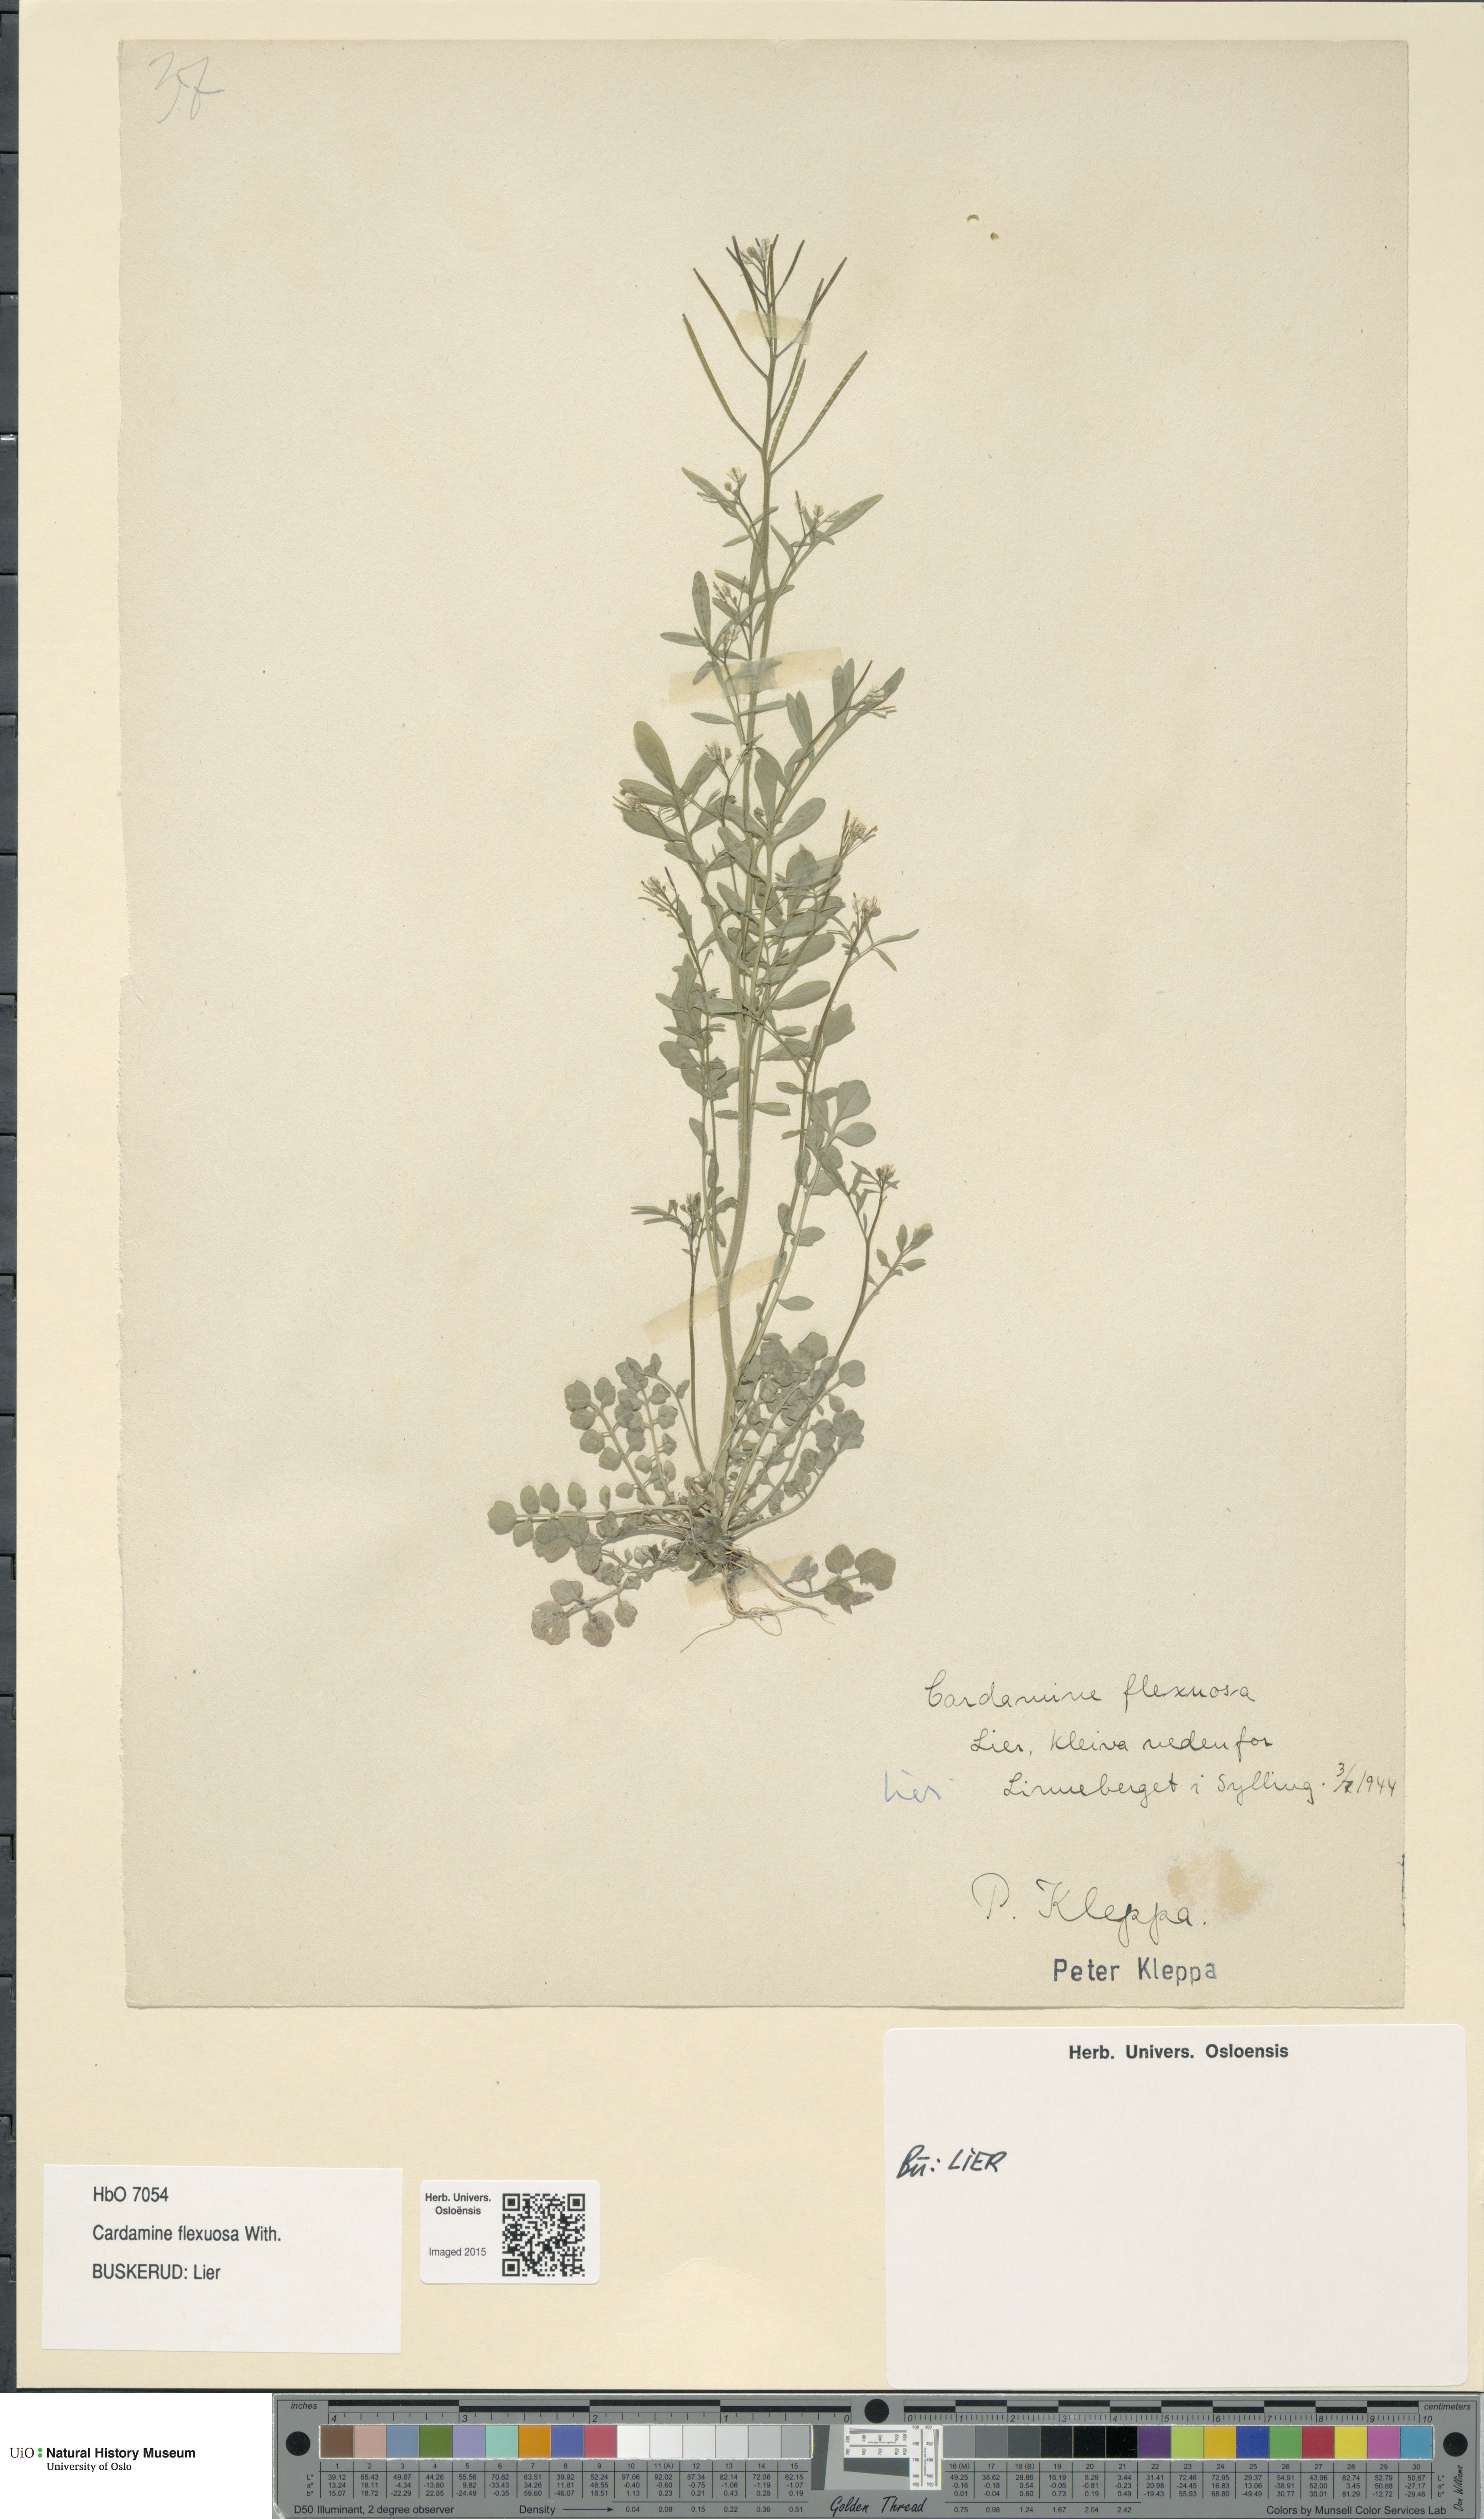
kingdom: Plantae
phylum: Tracheophyta
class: Magnoliopsida
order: Brassicales
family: Brassicaceae
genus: Cardamine
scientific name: Cardamine flexuosa
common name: Woodland bittercress
